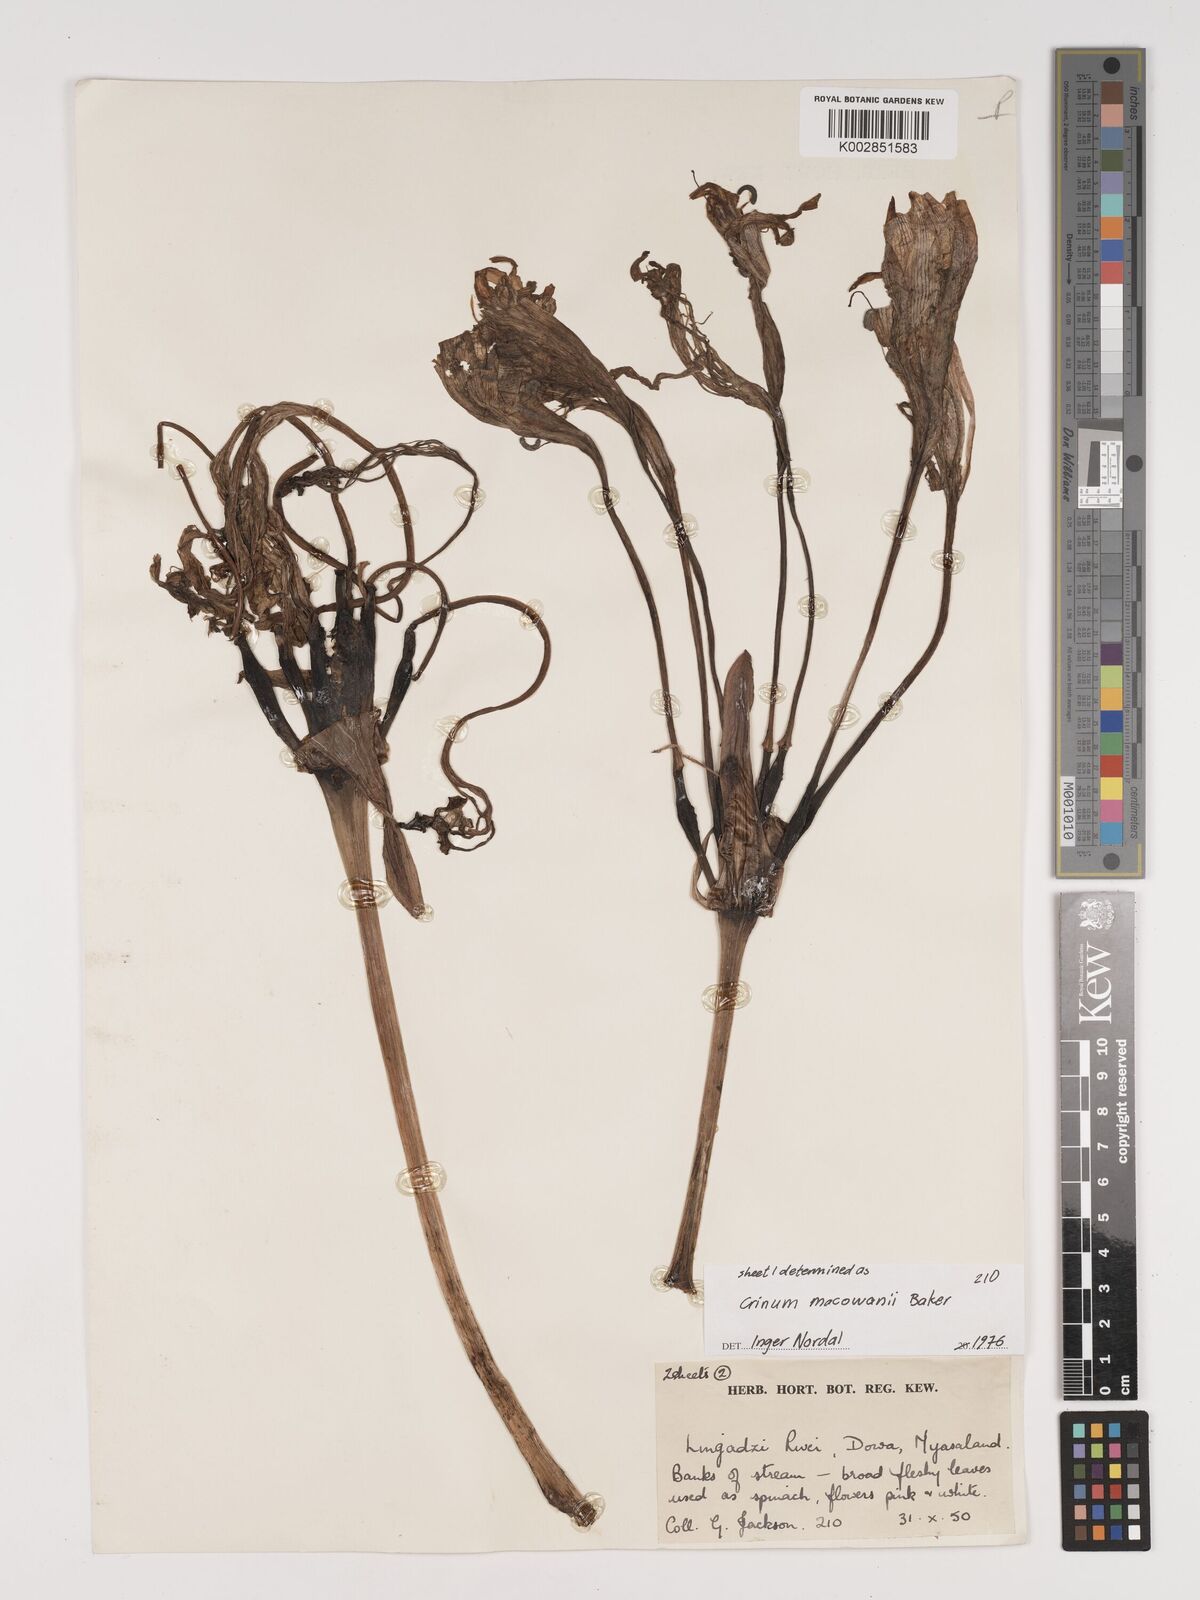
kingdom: Plantae
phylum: Tracheophyta
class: Liliopsida
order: Asparagales
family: Amaryllidaceae
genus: Crinum
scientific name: Crinum macowanii
